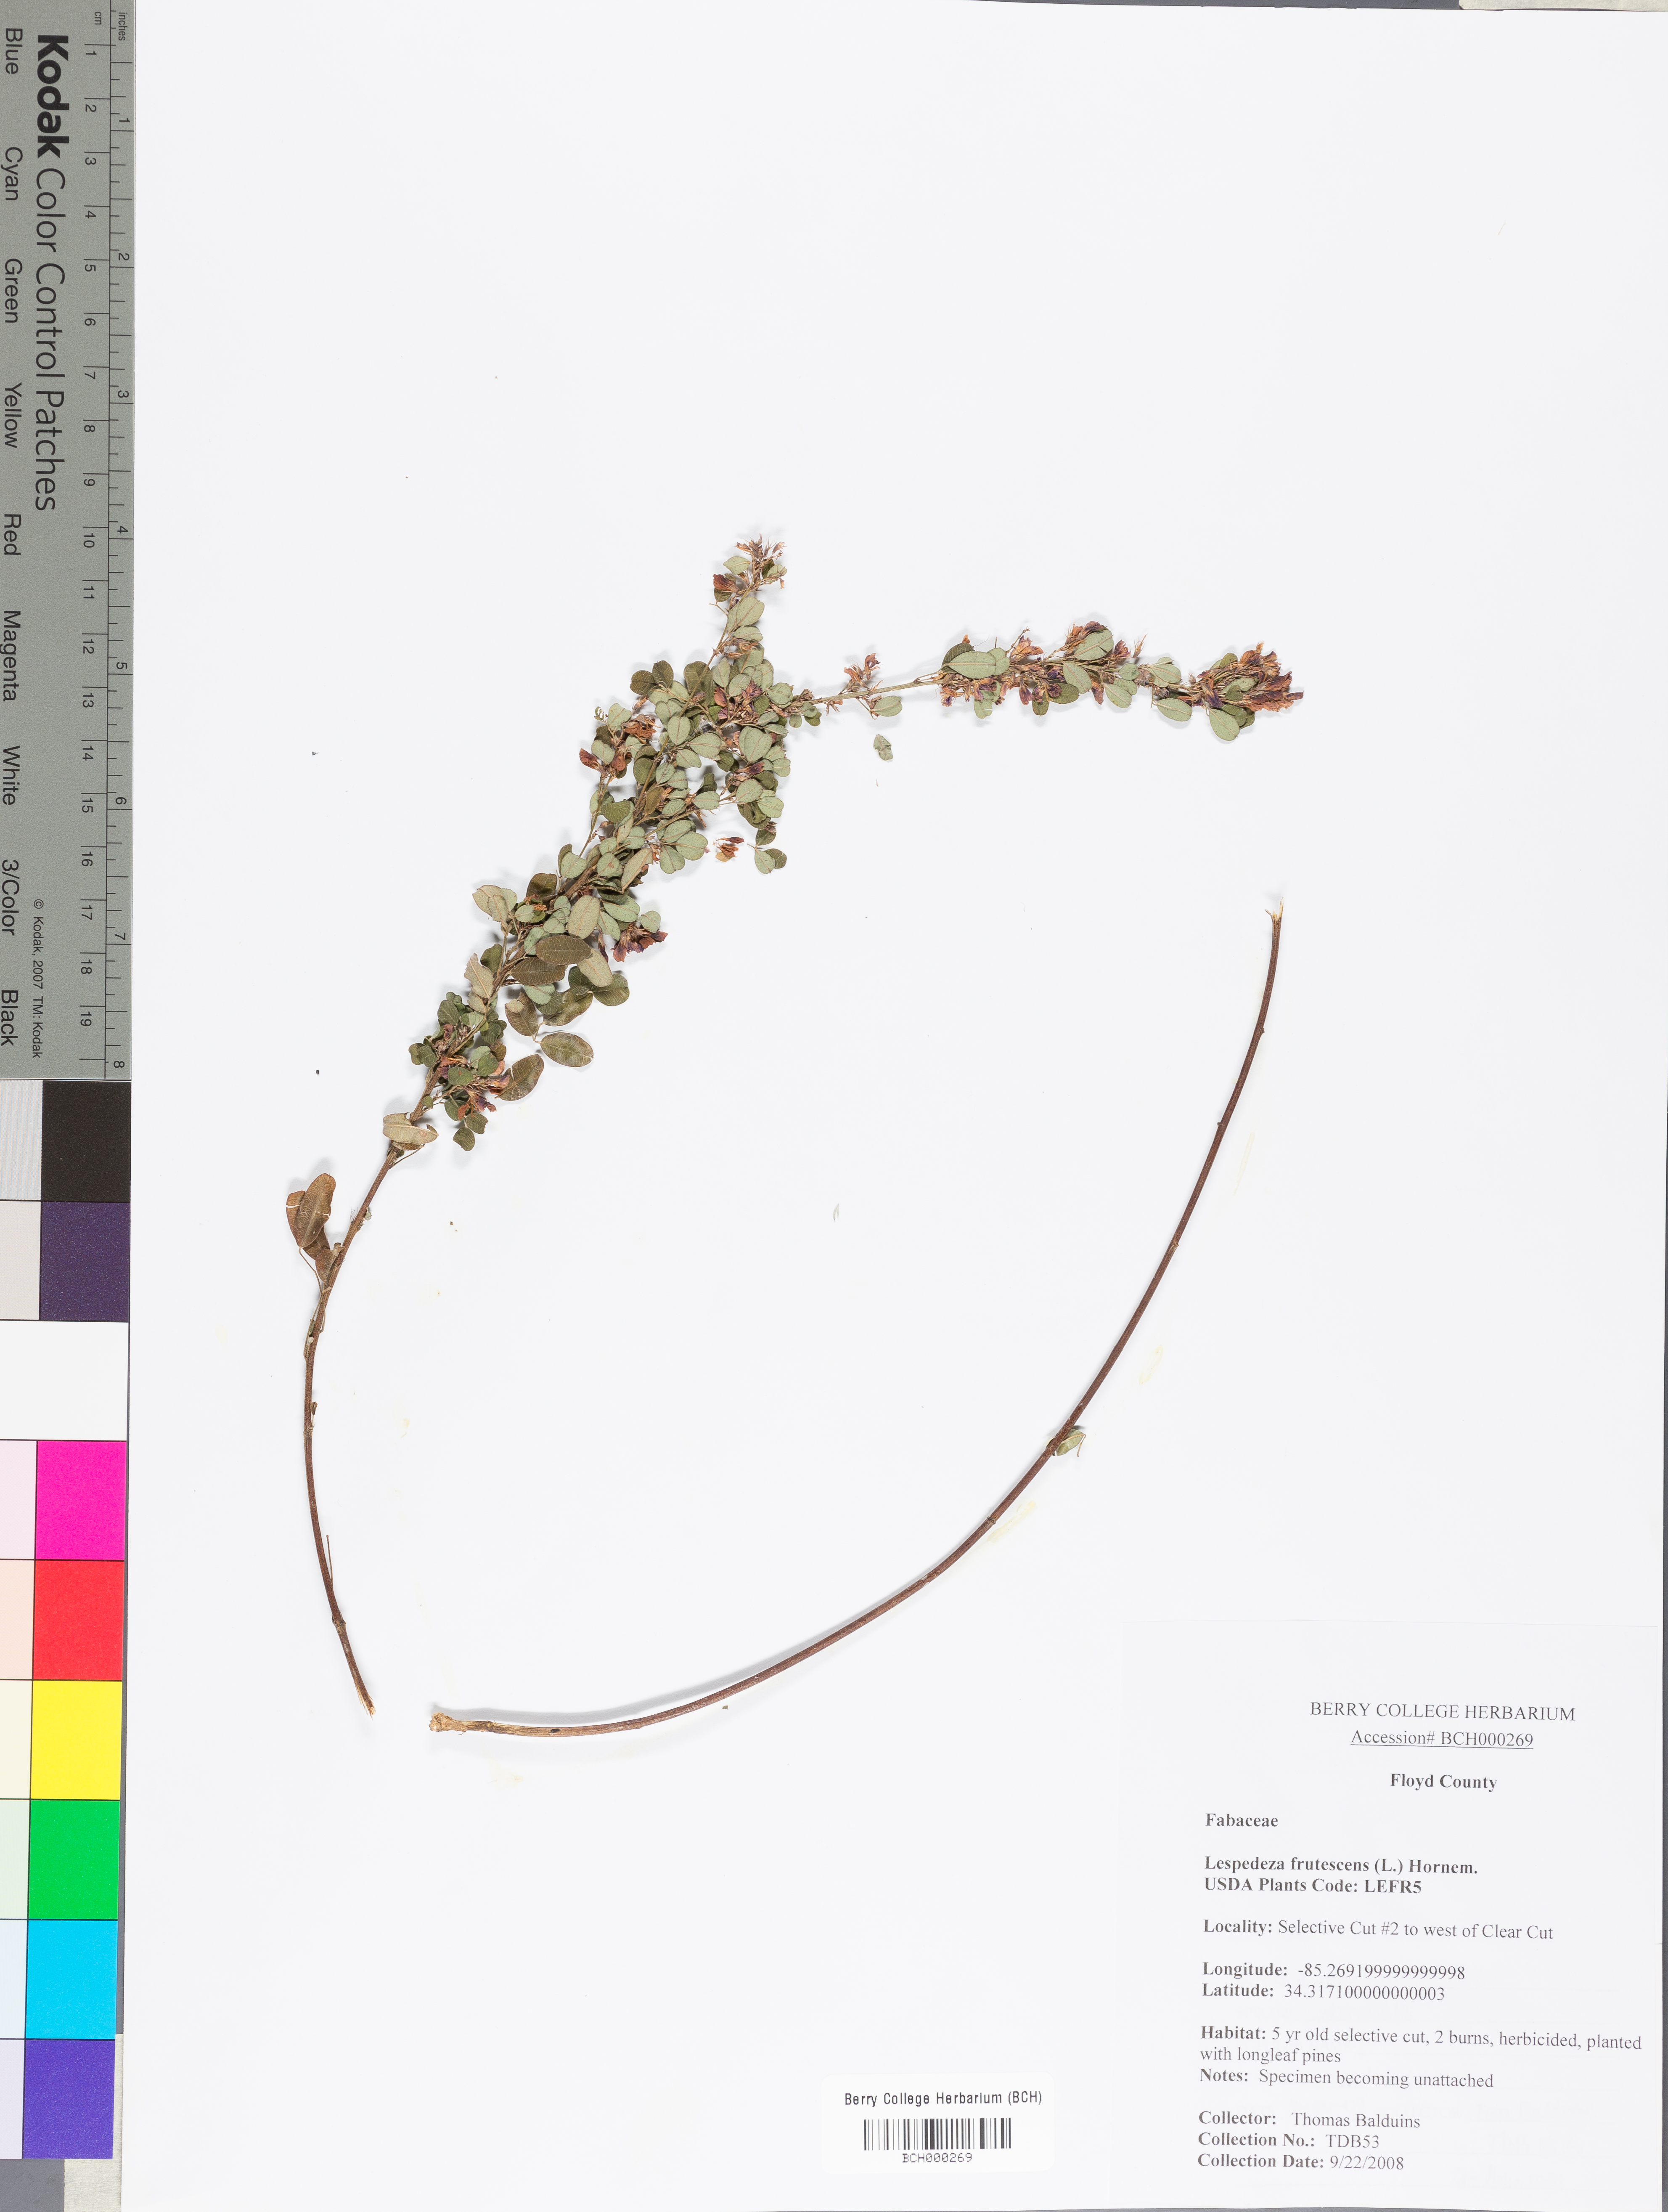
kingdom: Plantae
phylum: Tracheophyta
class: Magnoliopsida
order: Fabales
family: Fabaceae
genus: Lespedeza
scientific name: Lespedeza violacea
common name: Wand bush-clover
